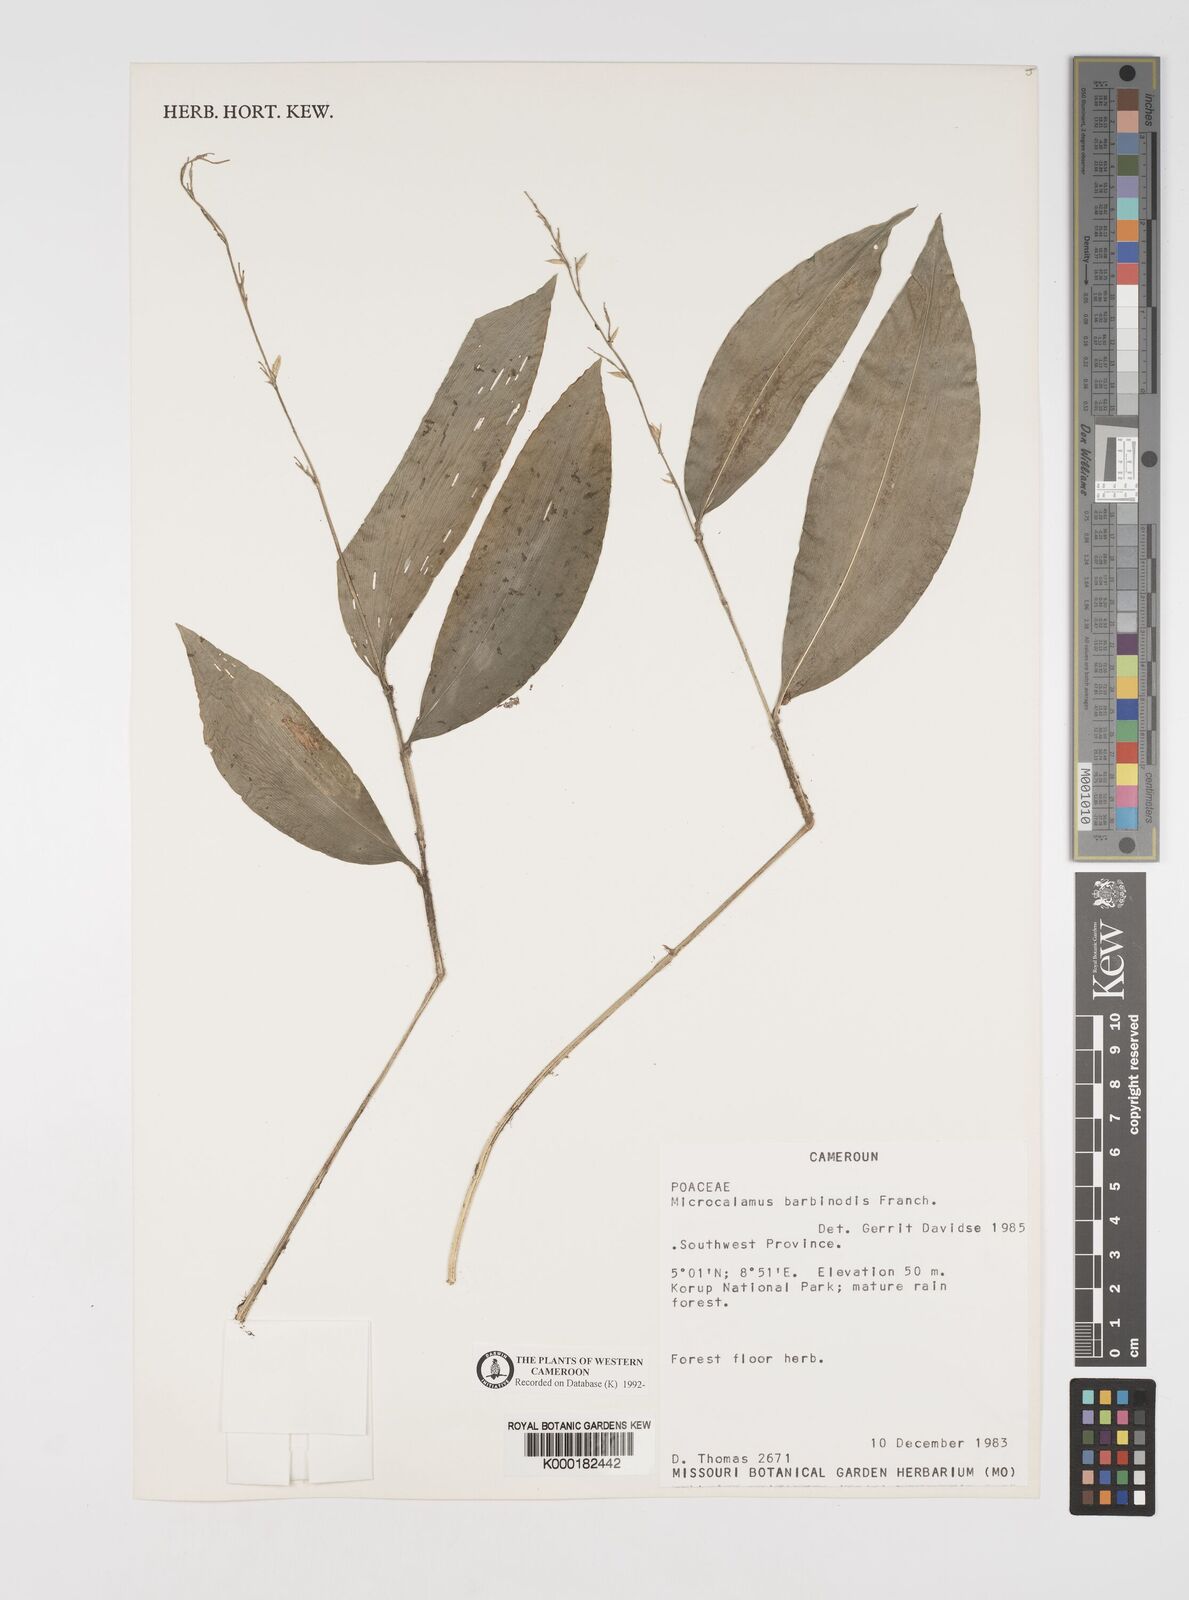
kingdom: Plantae
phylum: Tracheophyta
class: Liliopsida
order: Poales
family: Poaceae
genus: Microcalamus
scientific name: Microcalamus barbinodis
